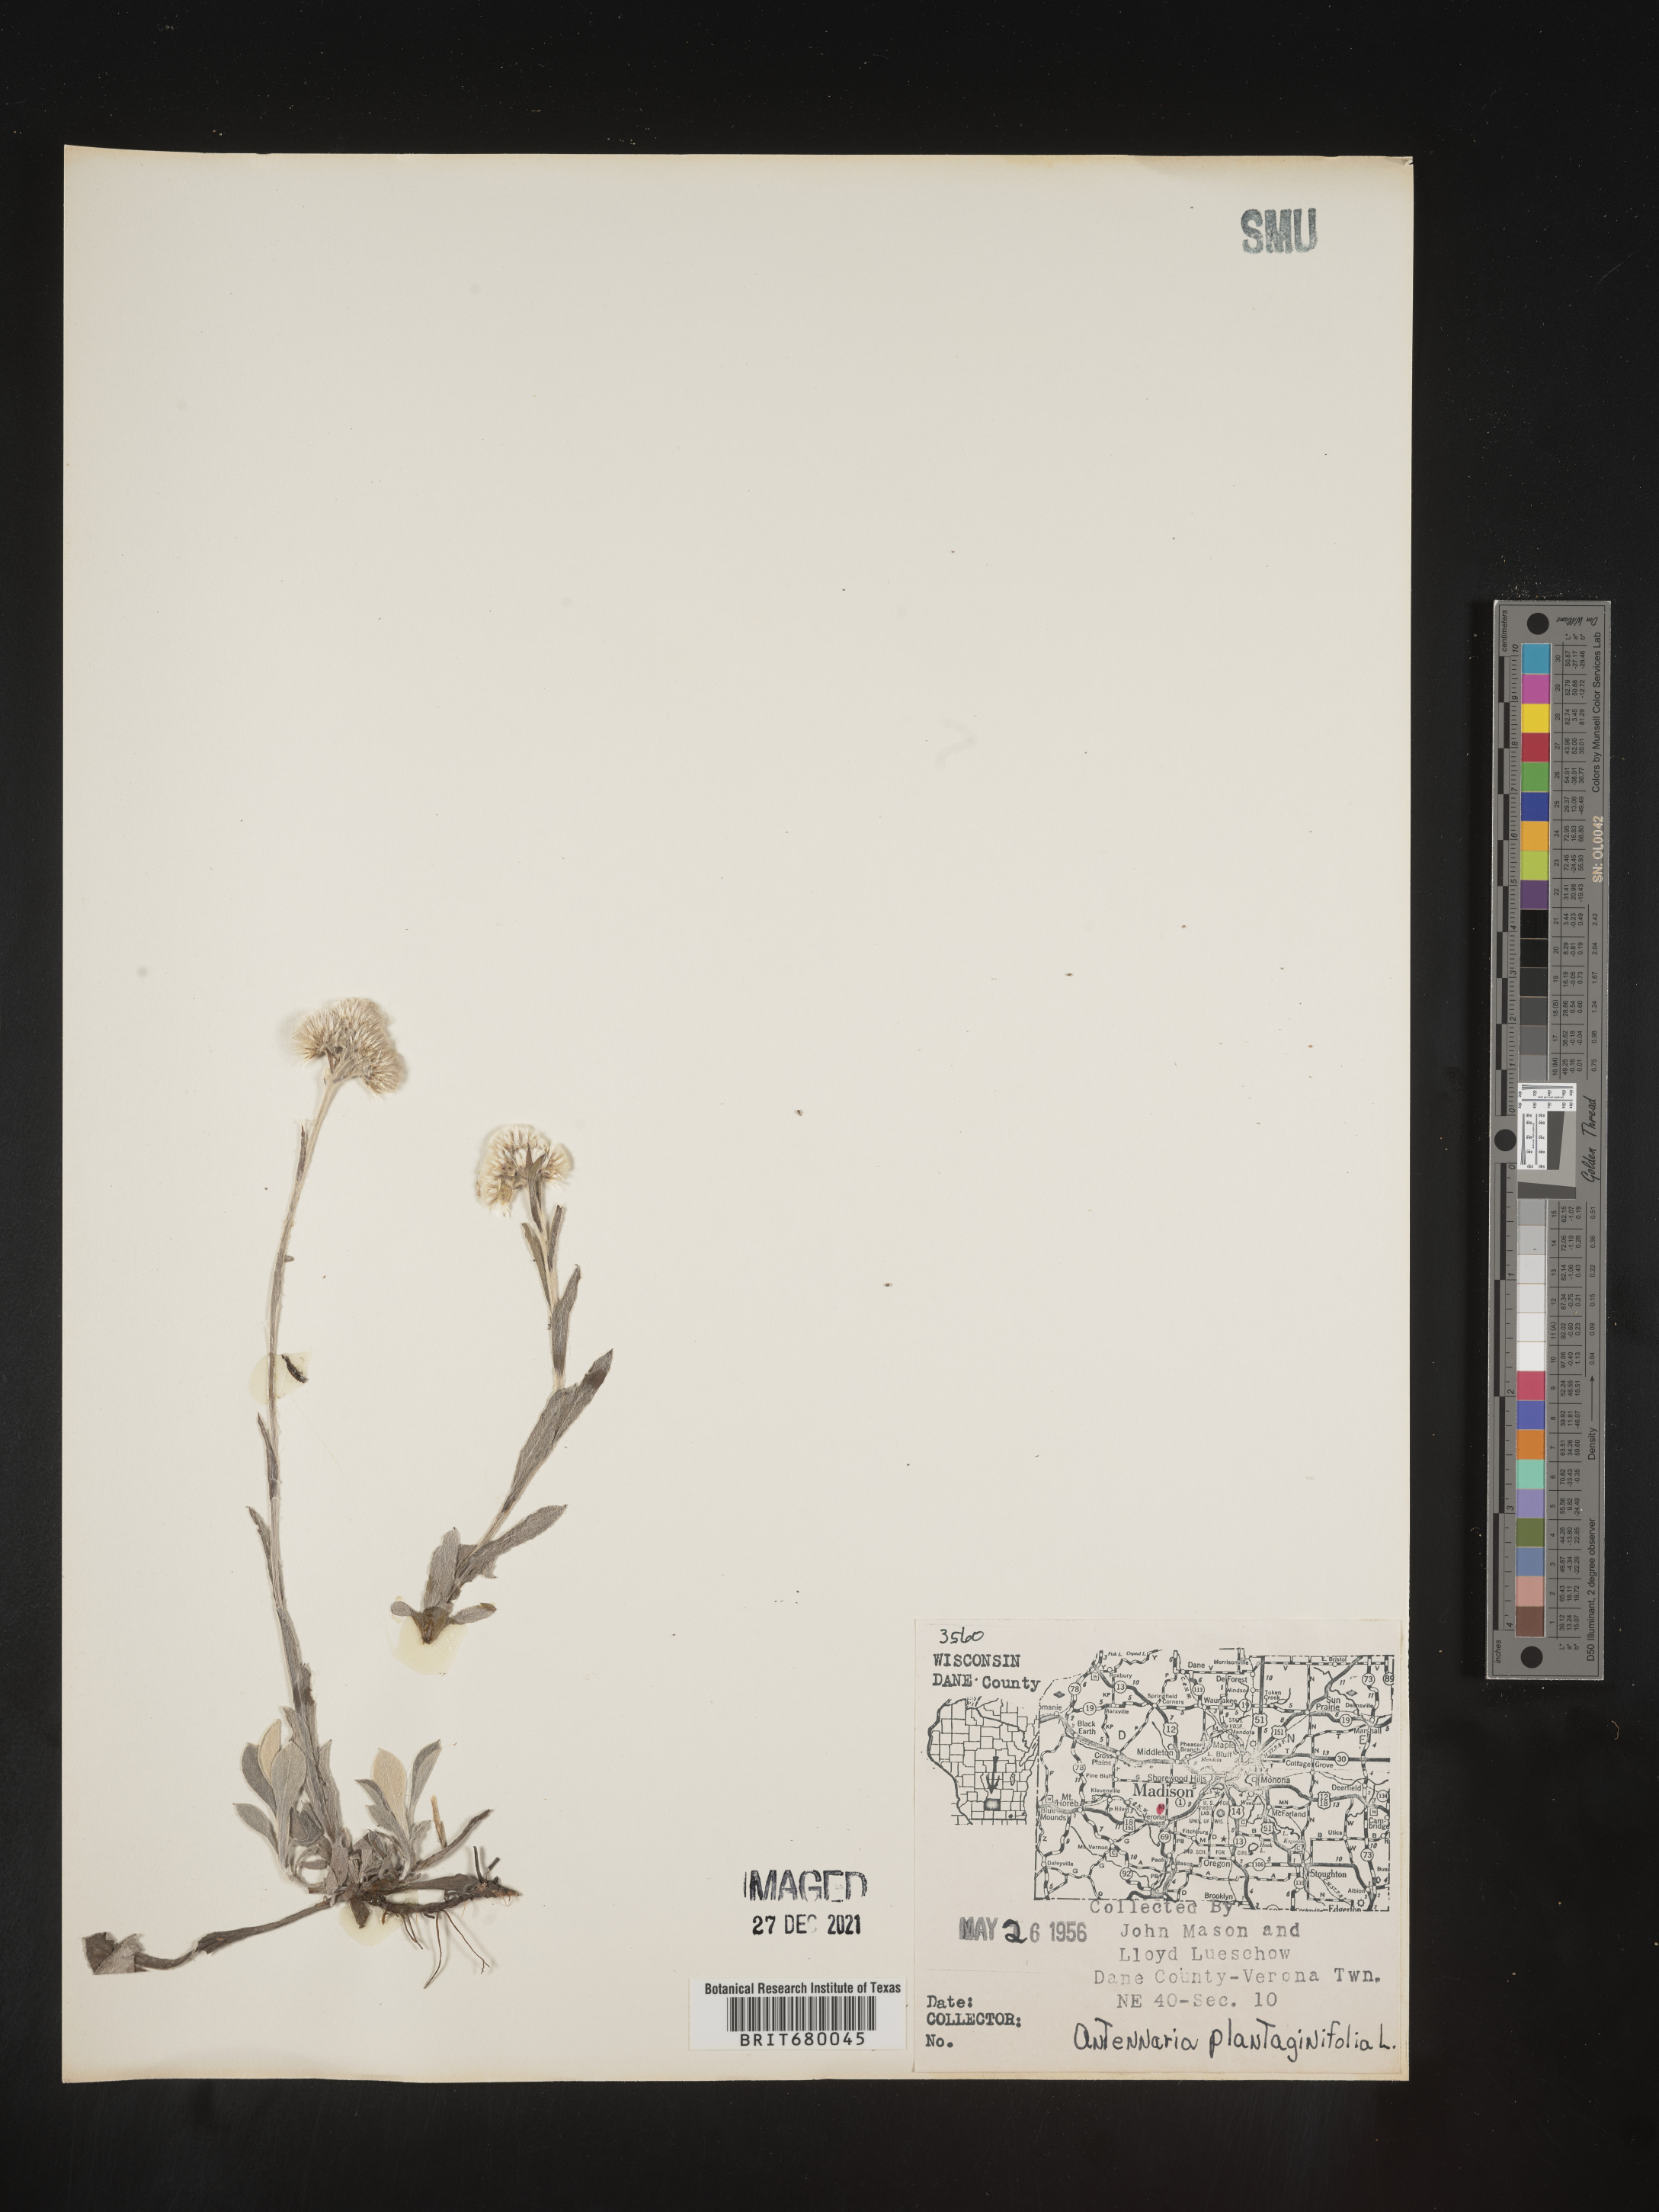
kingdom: Plantae
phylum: Tracheophyta
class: Magnoliopsida
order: Asterales
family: Asteraceae
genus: Antennaria
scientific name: Antennaria plantaginifolia
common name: Plantain-leaved pussytoes
